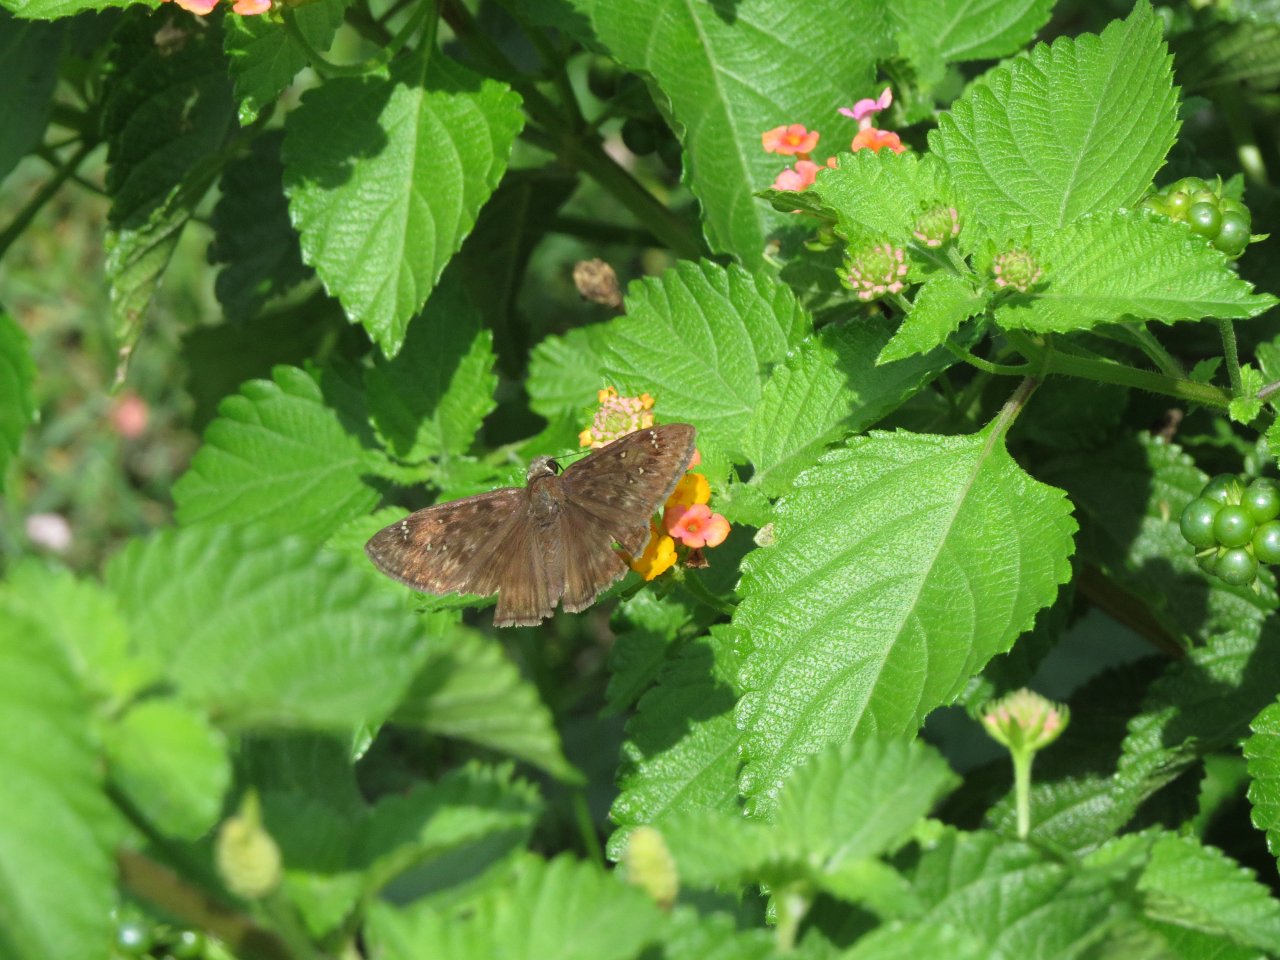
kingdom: Animalia
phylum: Arthropoda
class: Insecta
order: Lepidoptera
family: Hesperiidae
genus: Gesta
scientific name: Gesta
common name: Horace's Duskywing
